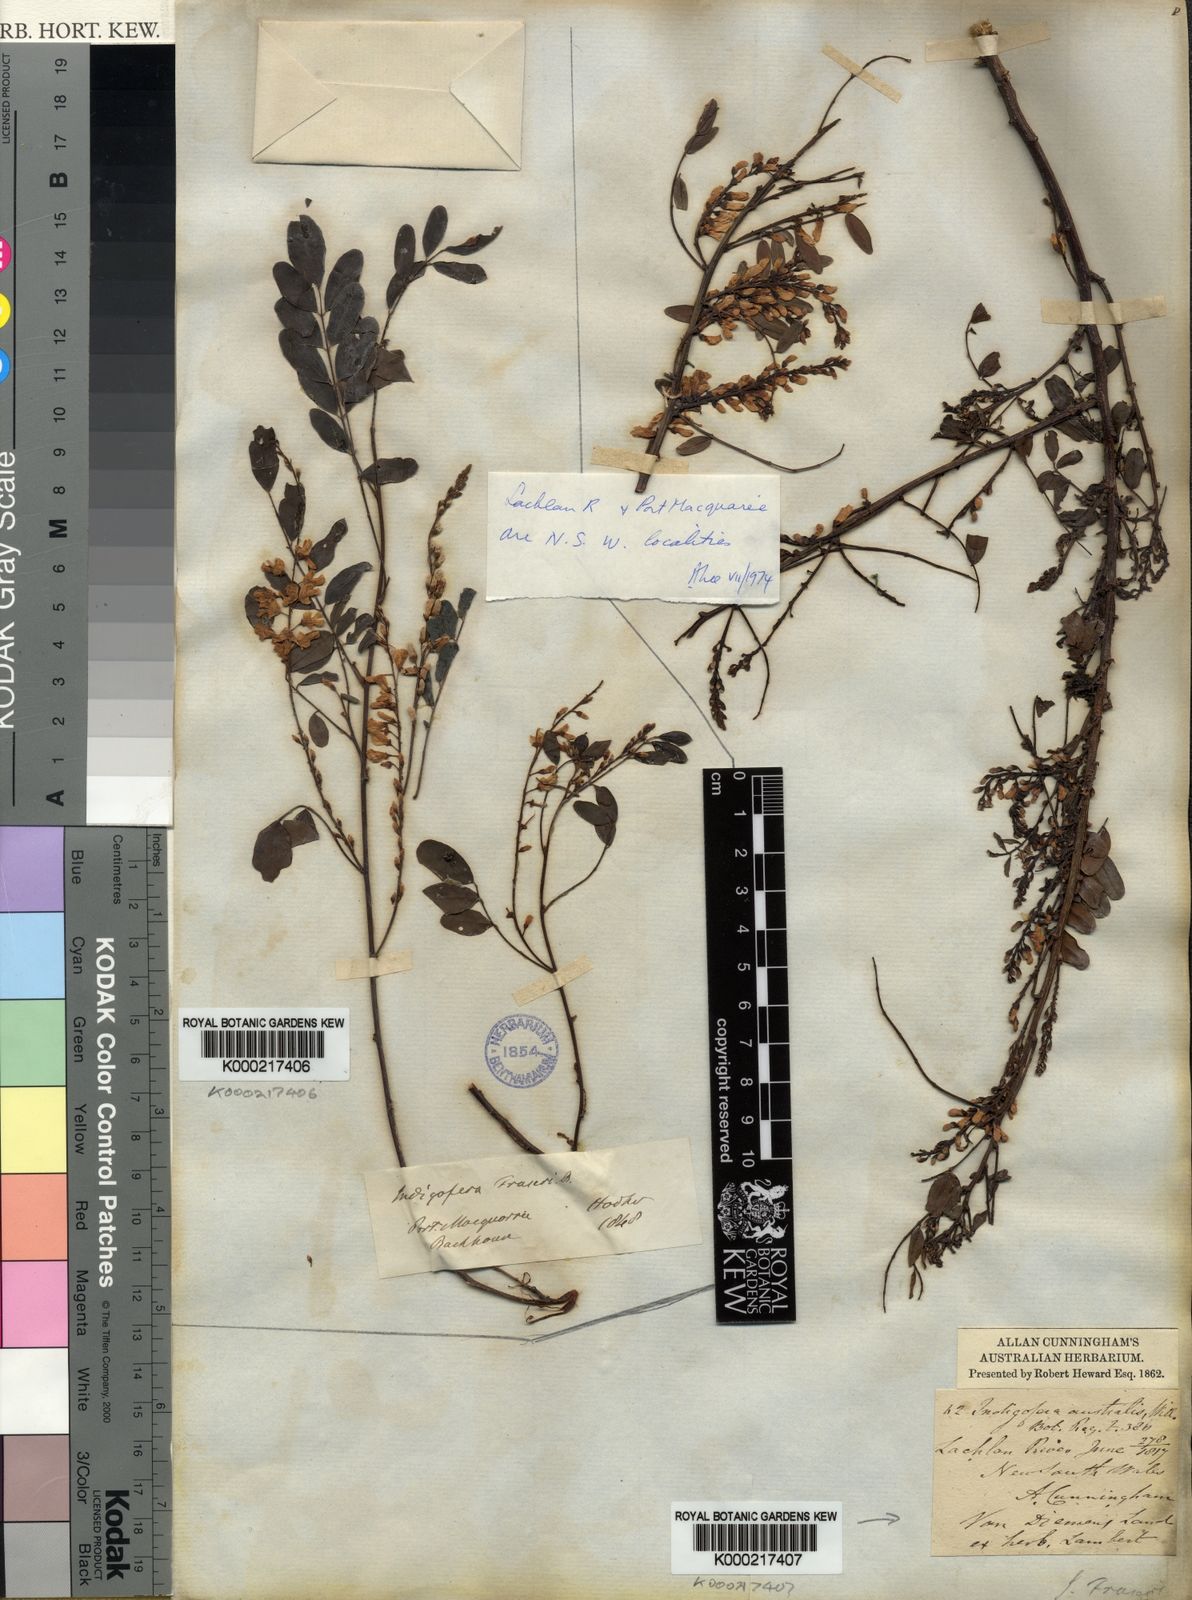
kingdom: Plantae
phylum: Tracheophyta
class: Magnoliopsida
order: Fabales
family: Fabaceae
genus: Indigofera
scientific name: Indigofera
